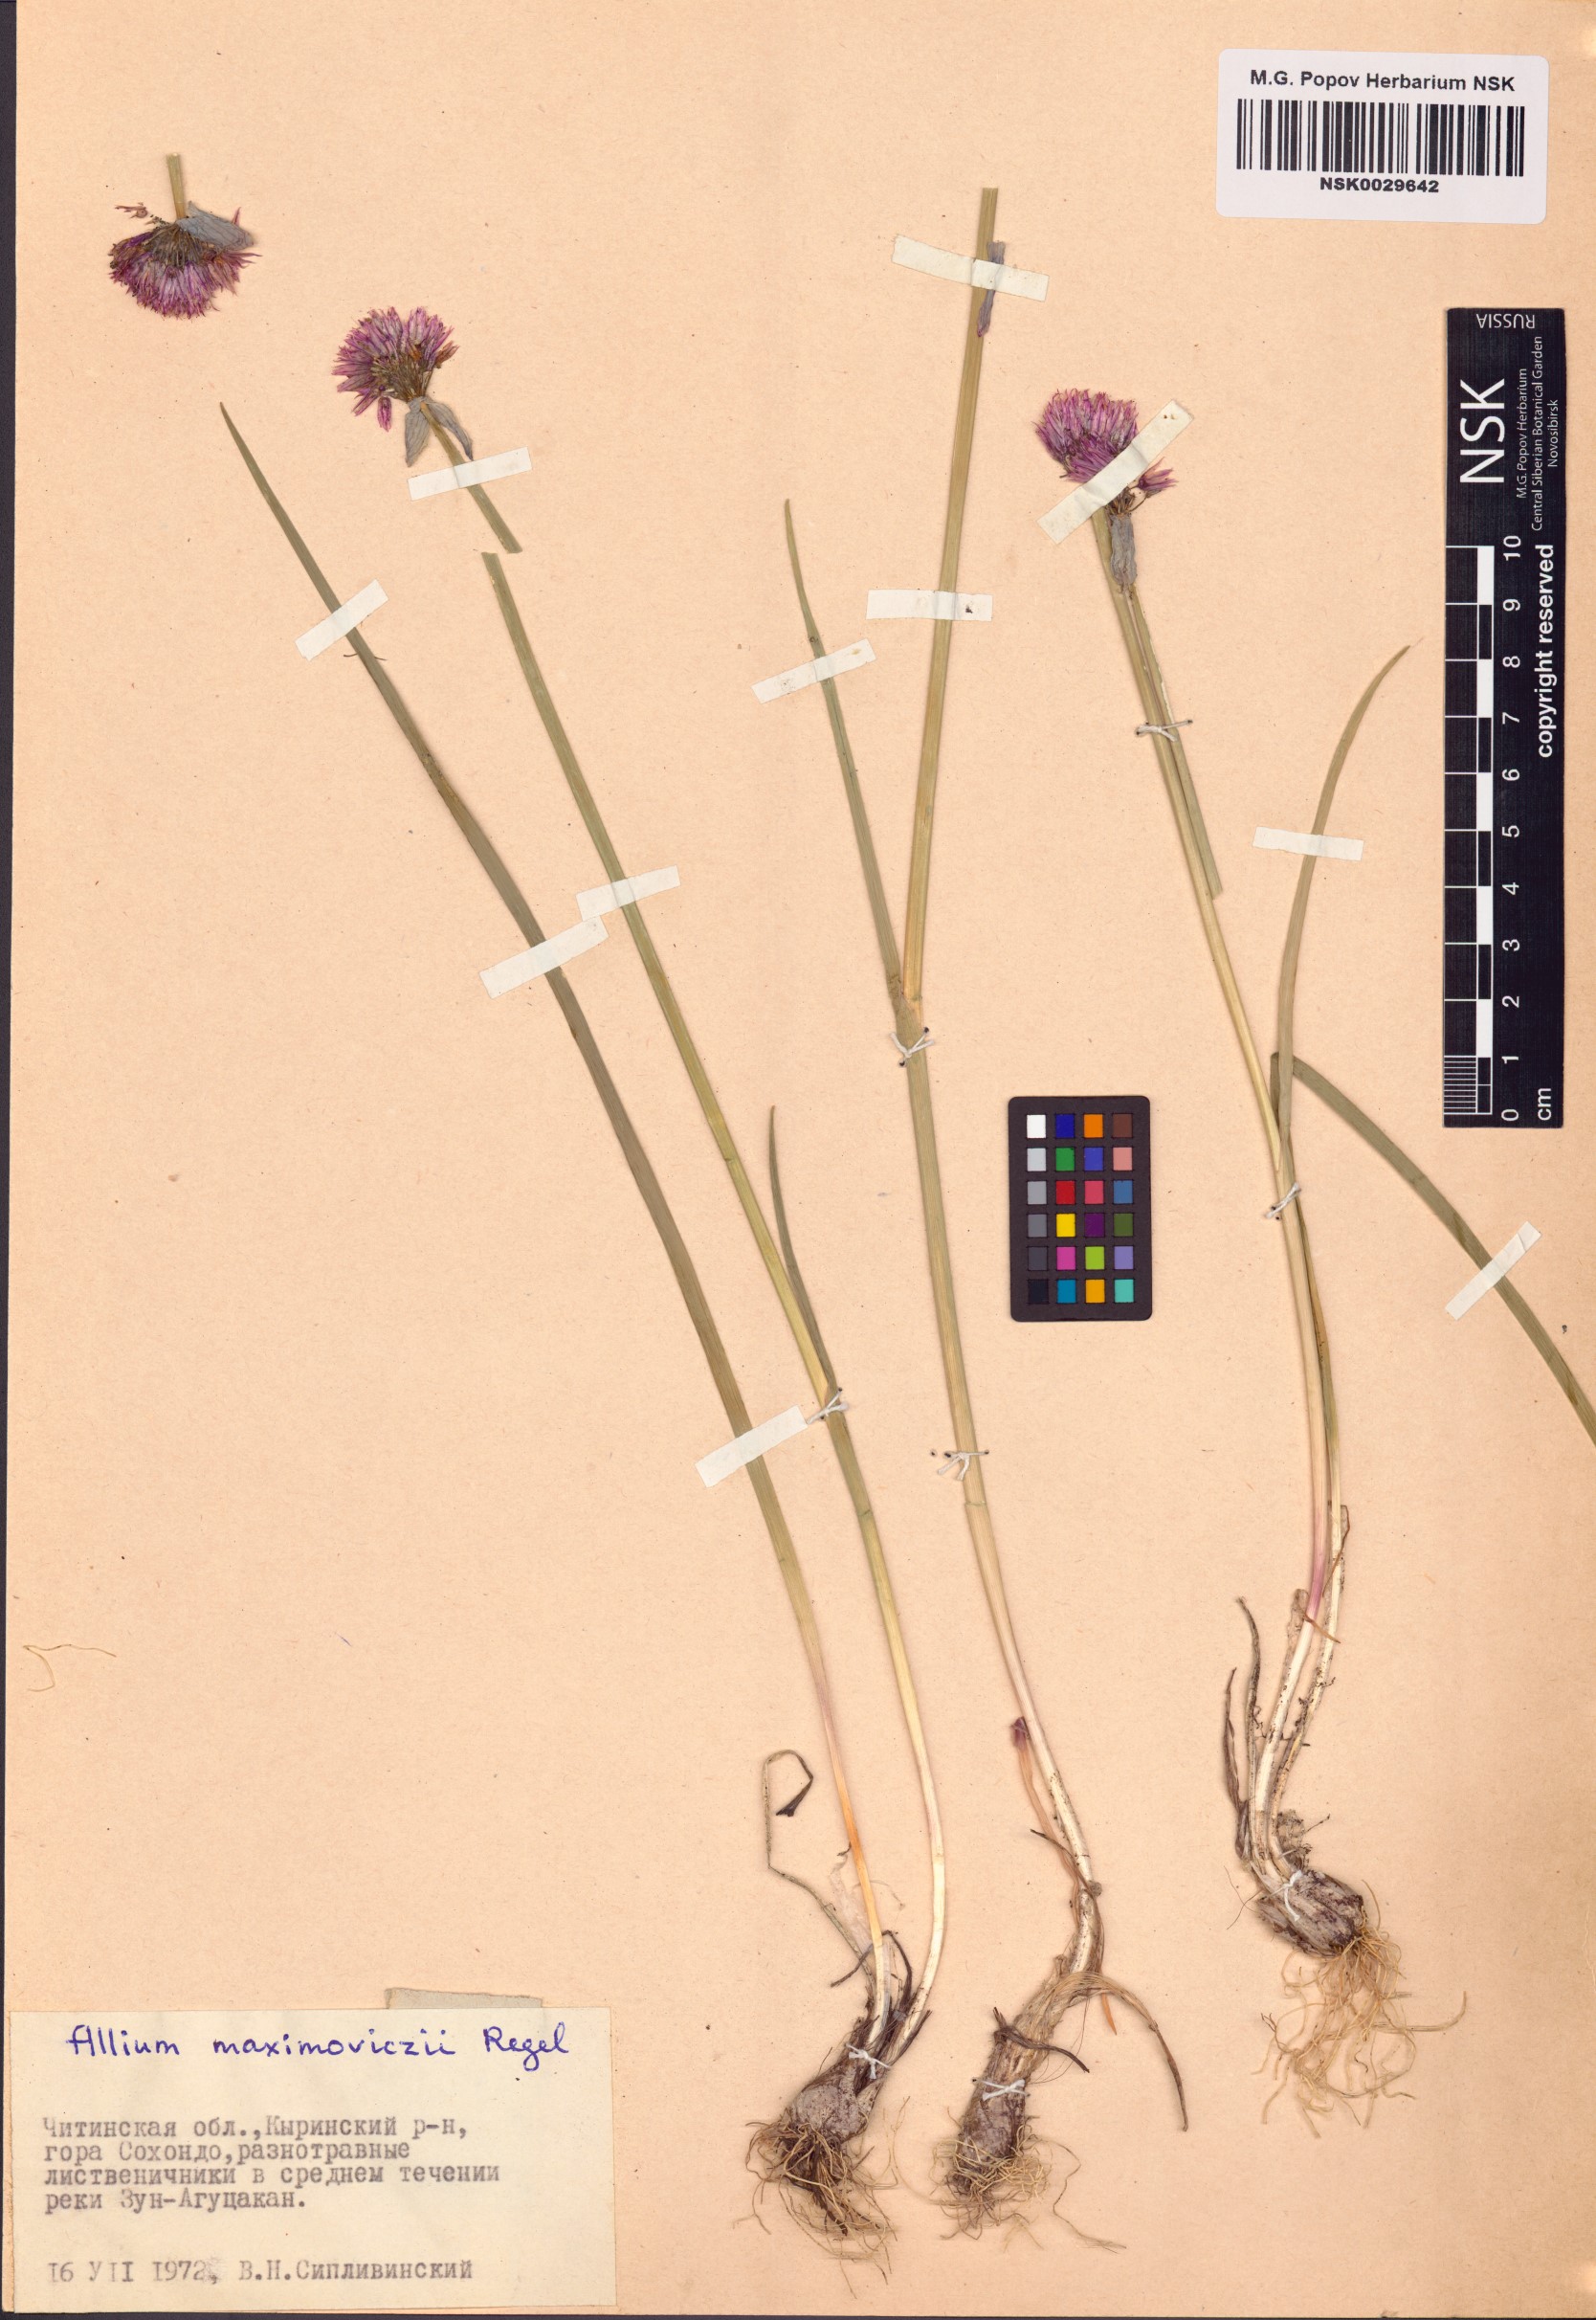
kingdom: Plantae
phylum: Tracheophyta
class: Liliopsida
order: Asparagales
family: Amaryllidaceae
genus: Allium
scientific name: Allium maximowiczii
